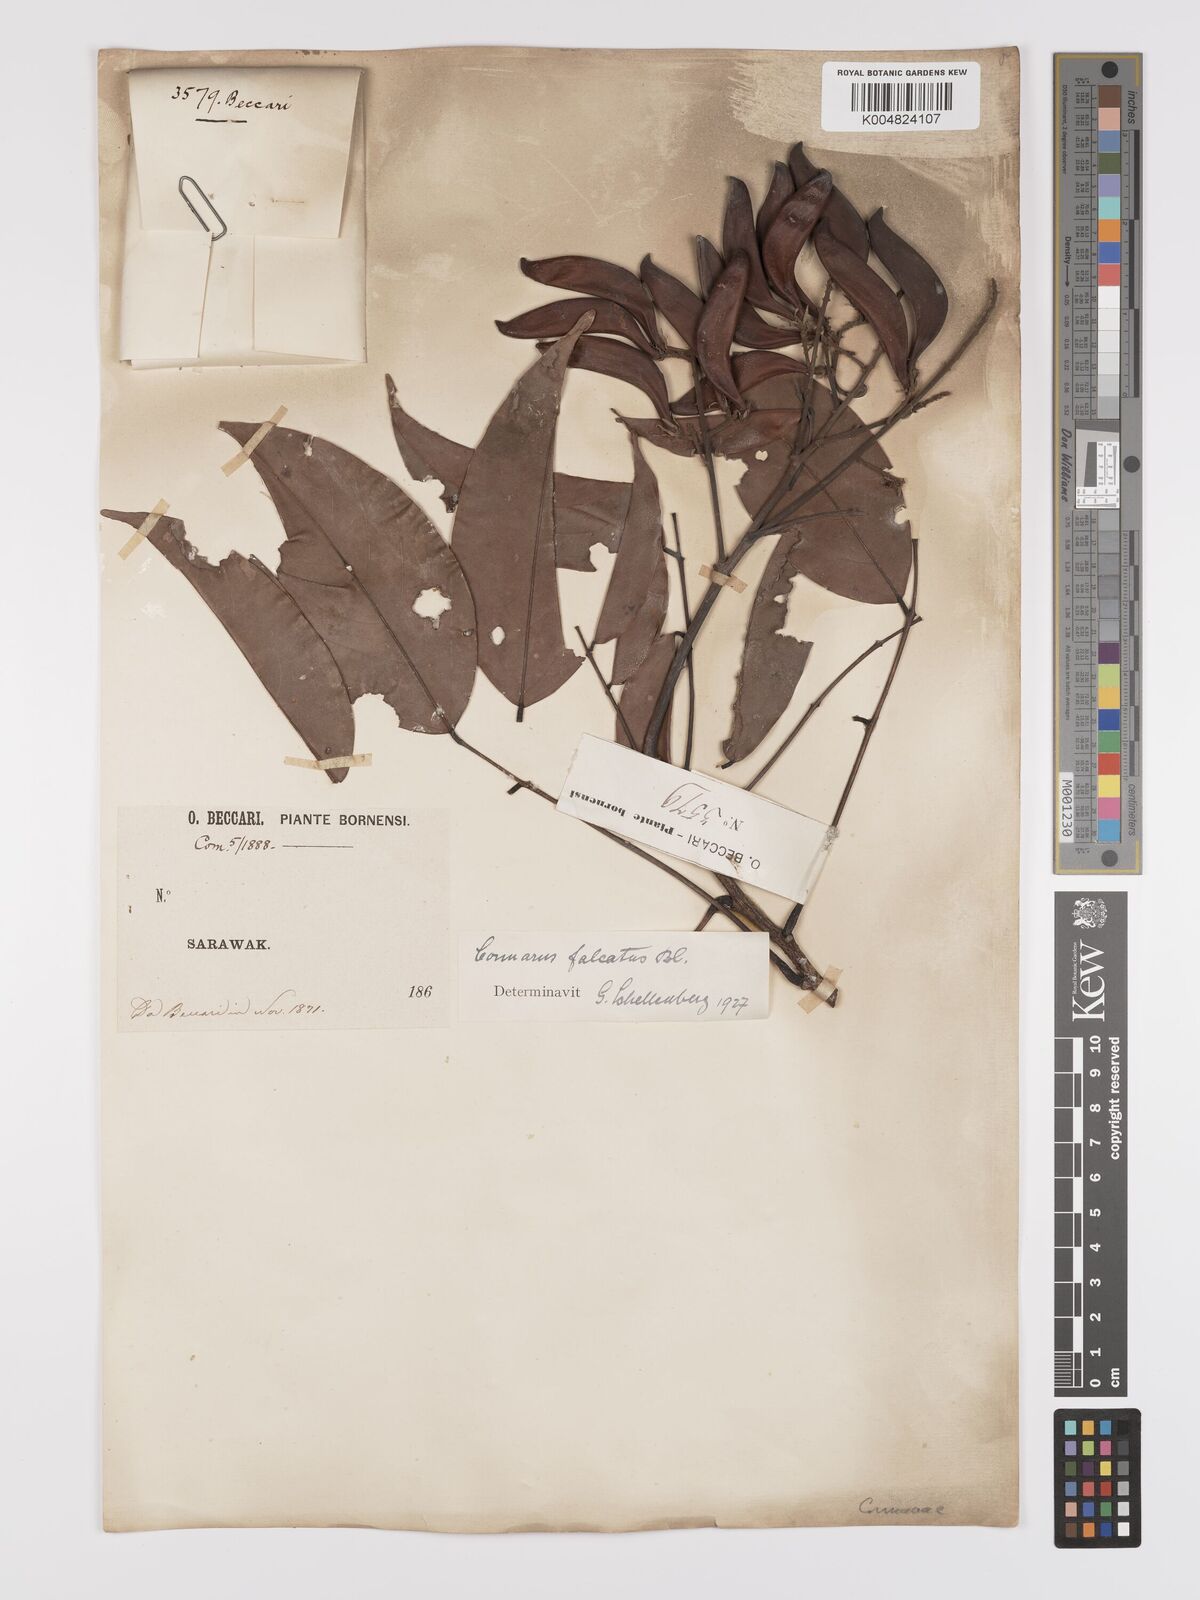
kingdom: Plantae
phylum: Tracheophyta
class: Magnoliopsida
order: Oxalidales
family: Connaraceae
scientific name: Connaraceae
